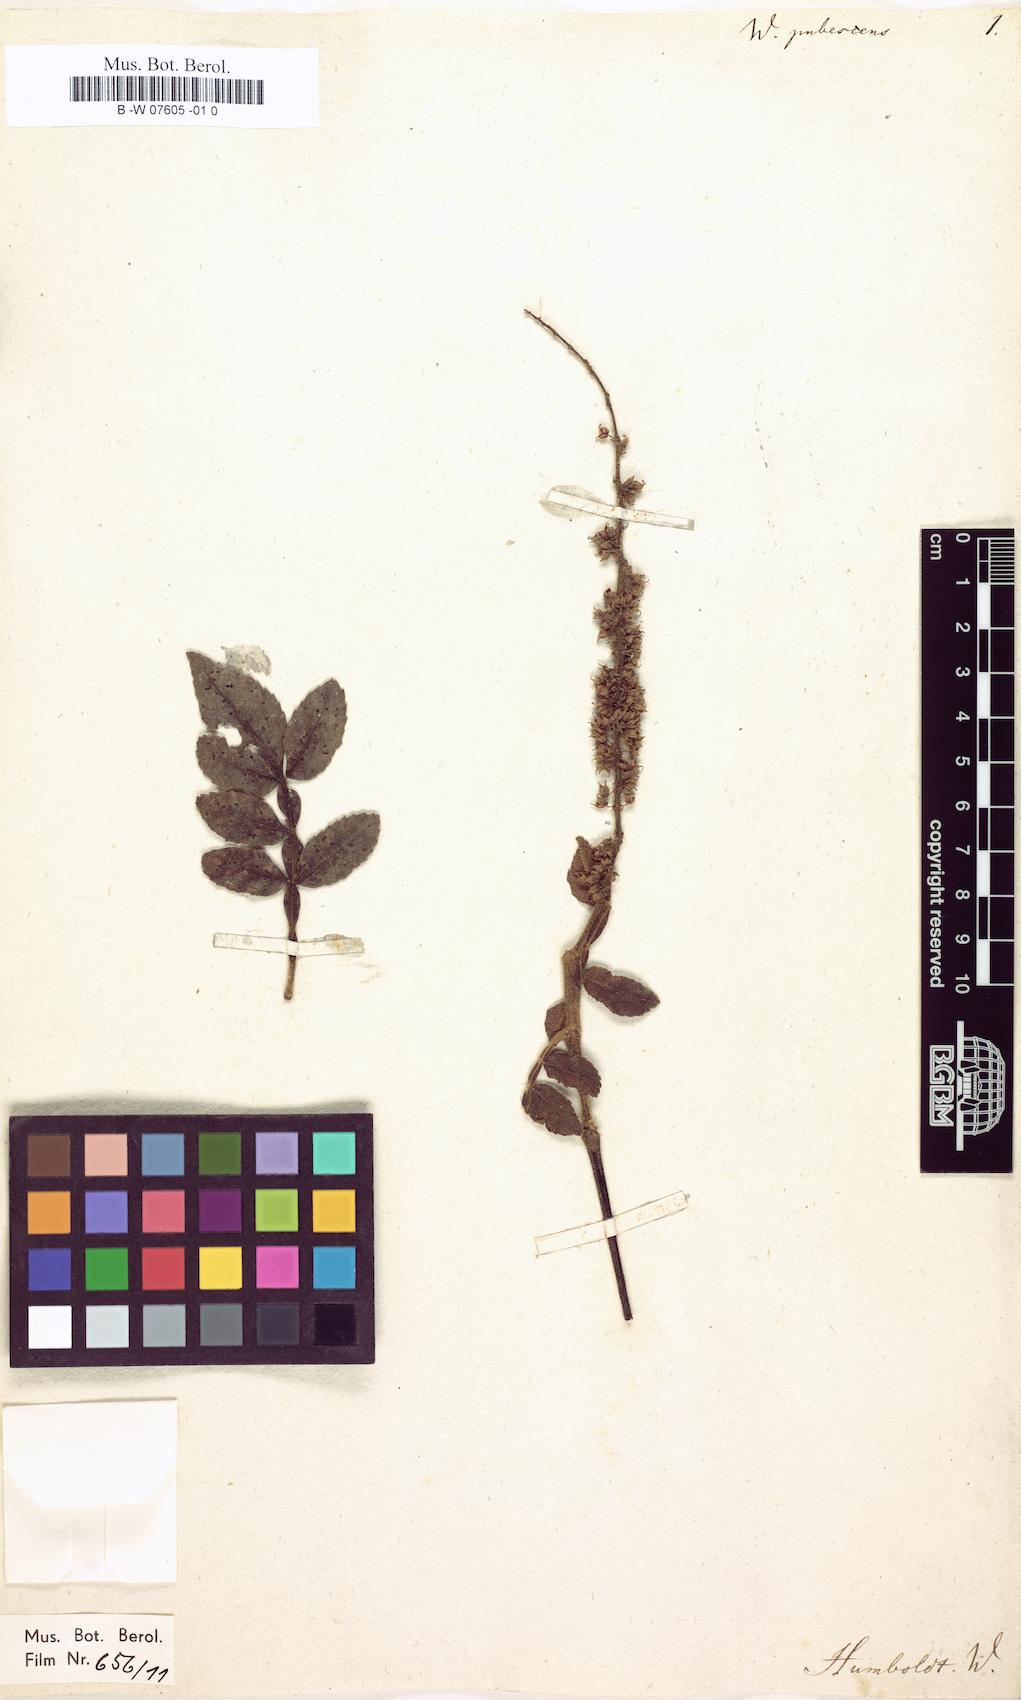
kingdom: Plantae
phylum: Tracheophyta
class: Magnoliopsida
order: Oxalidales
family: Cunoniaceae
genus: Weinmannia
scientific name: Weinmannia pubescens
